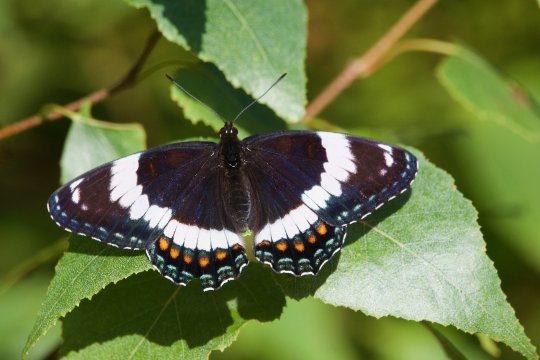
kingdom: Animalia
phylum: Arthropoda
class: Insecta
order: Lepidoptera
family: Nymphalidae
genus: Limenitis
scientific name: Limenitis arthemis
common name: Red-spotted Admiral
